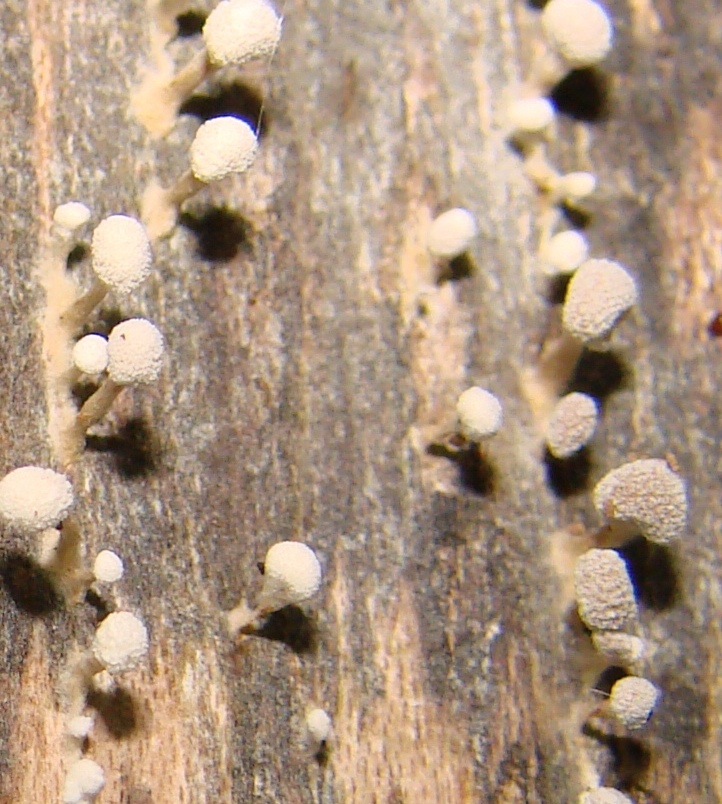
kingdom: Fungi
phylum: Ascomycota
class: Leotiomycetes
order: Helotiales
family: Helotiaceae
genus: Hymenoscyphus
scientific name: Hymenoscyphus fructigenus
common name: frugt-stilkskive
